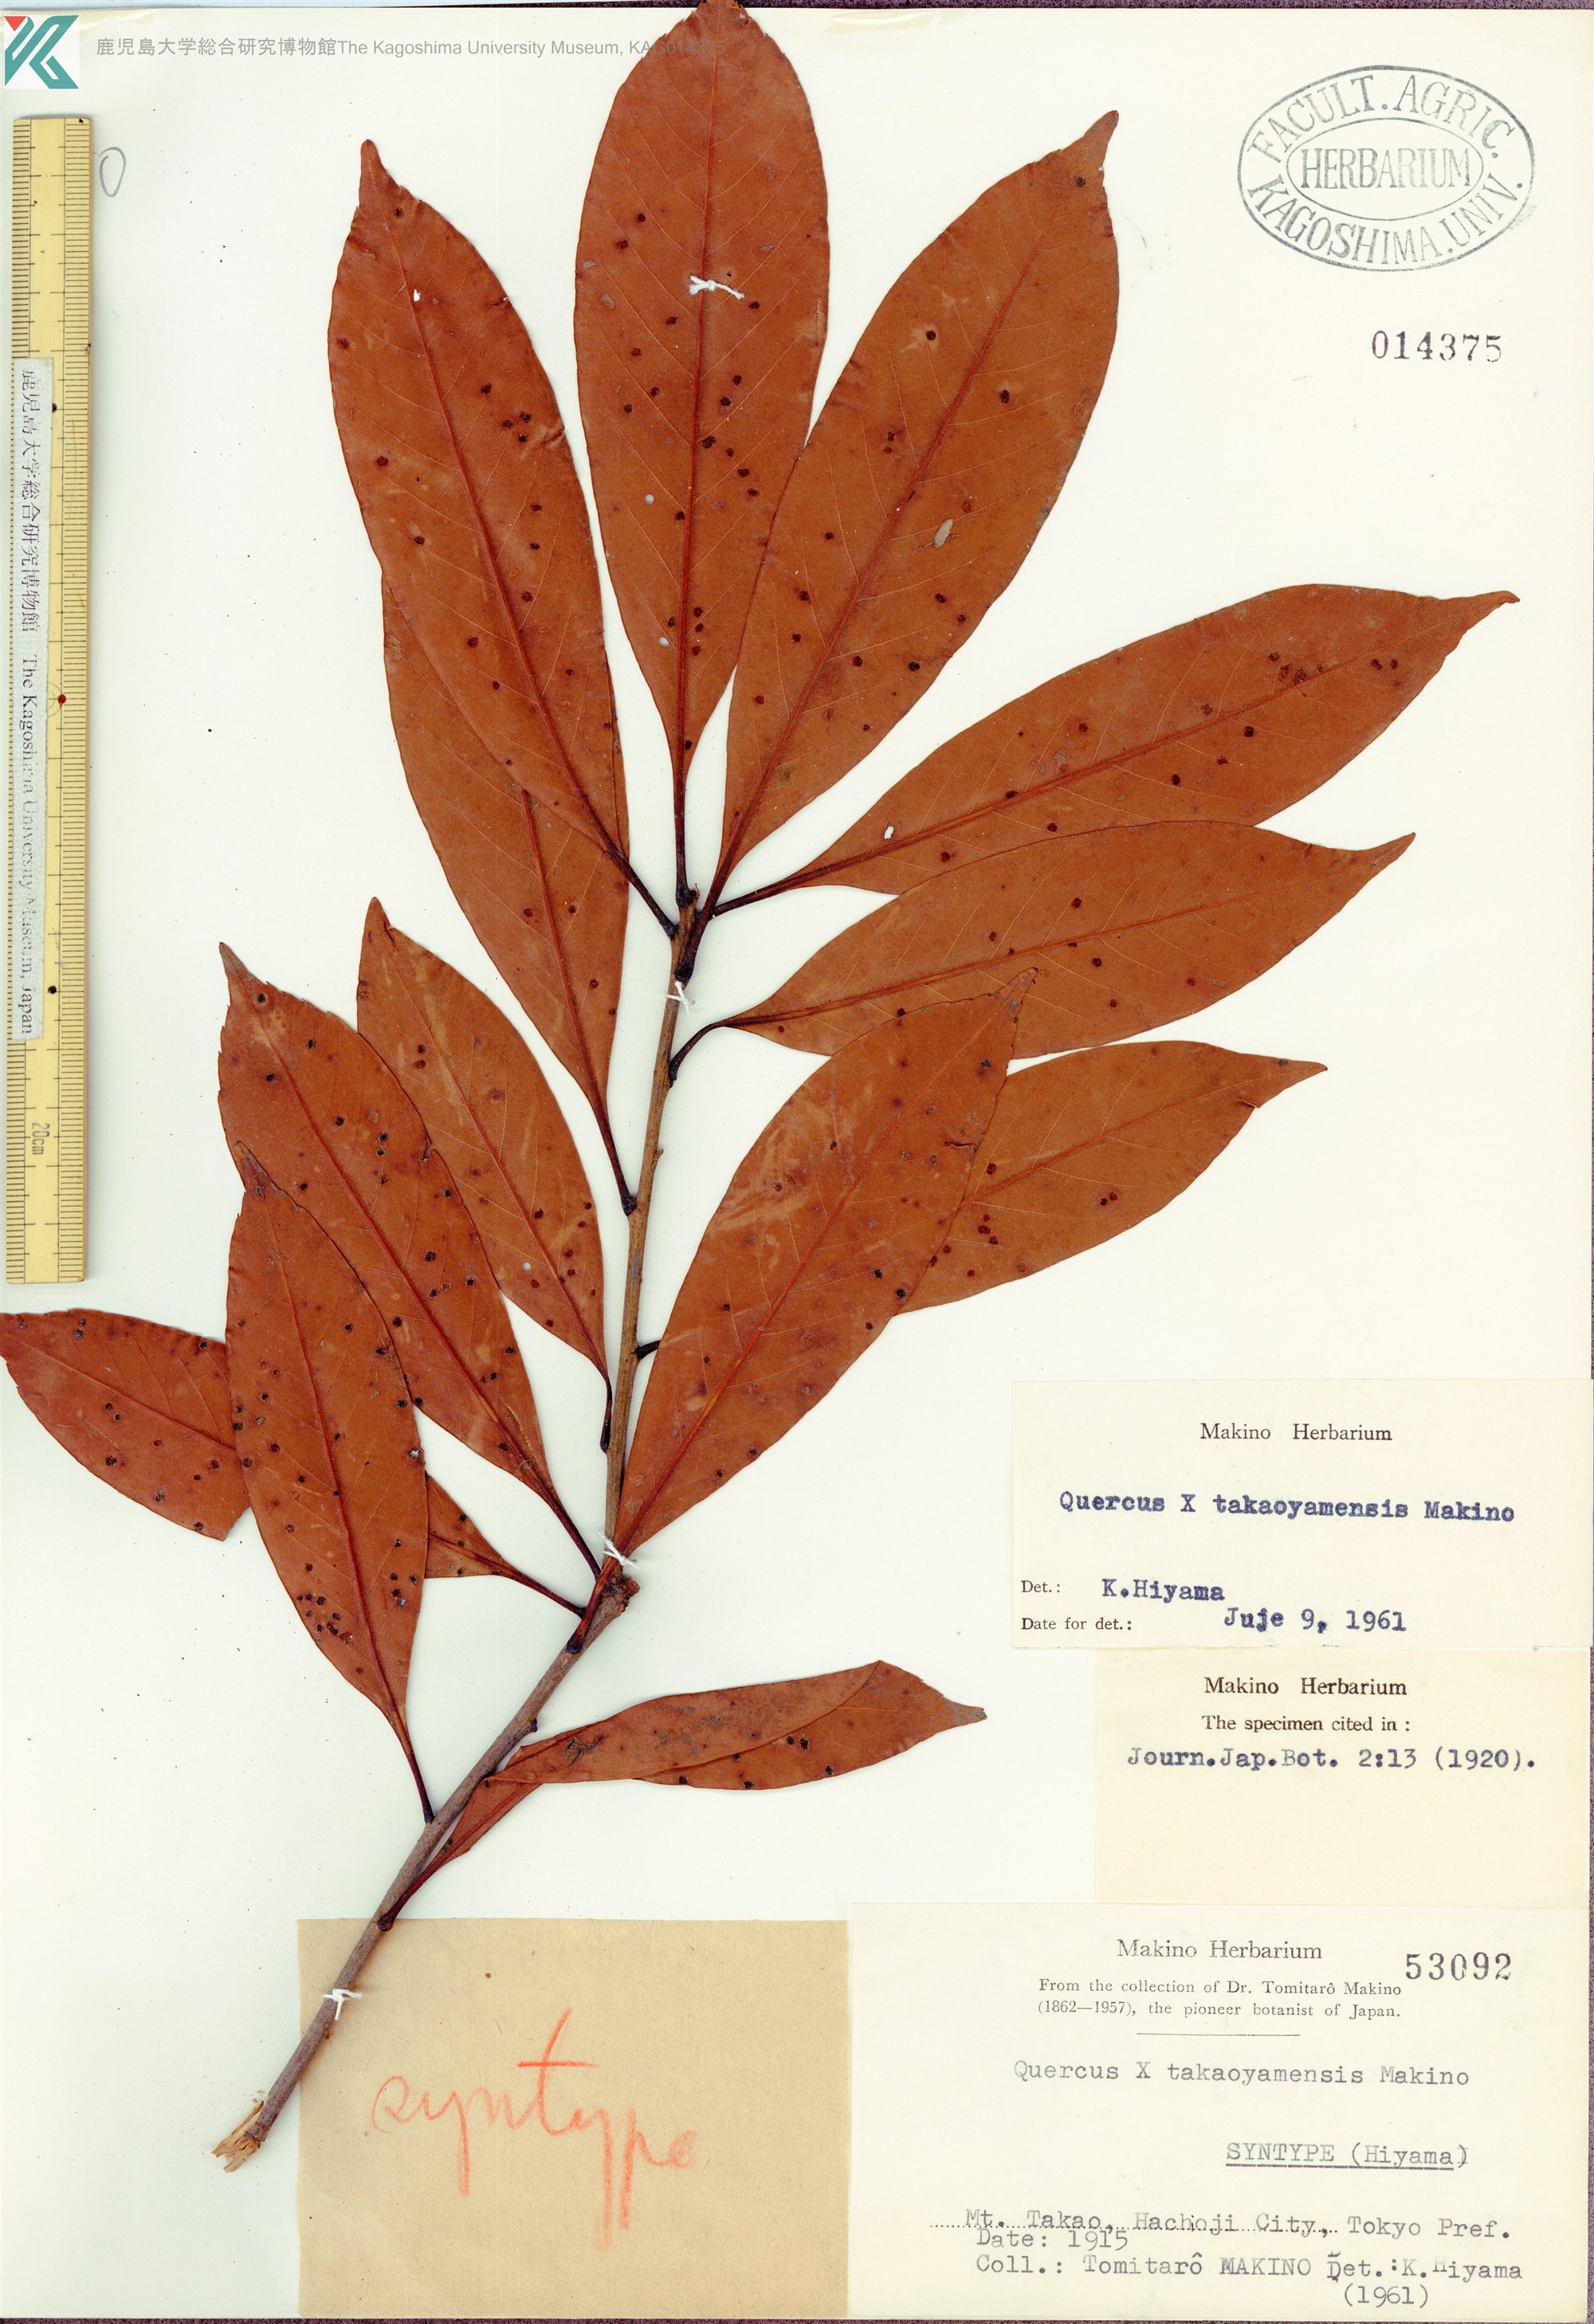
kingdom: Plantae
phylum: Tracheophyta
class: Magnoliopsida
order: Fagales
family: Fagaceae
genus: Quercus
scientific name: Quercus takaoyamensis
